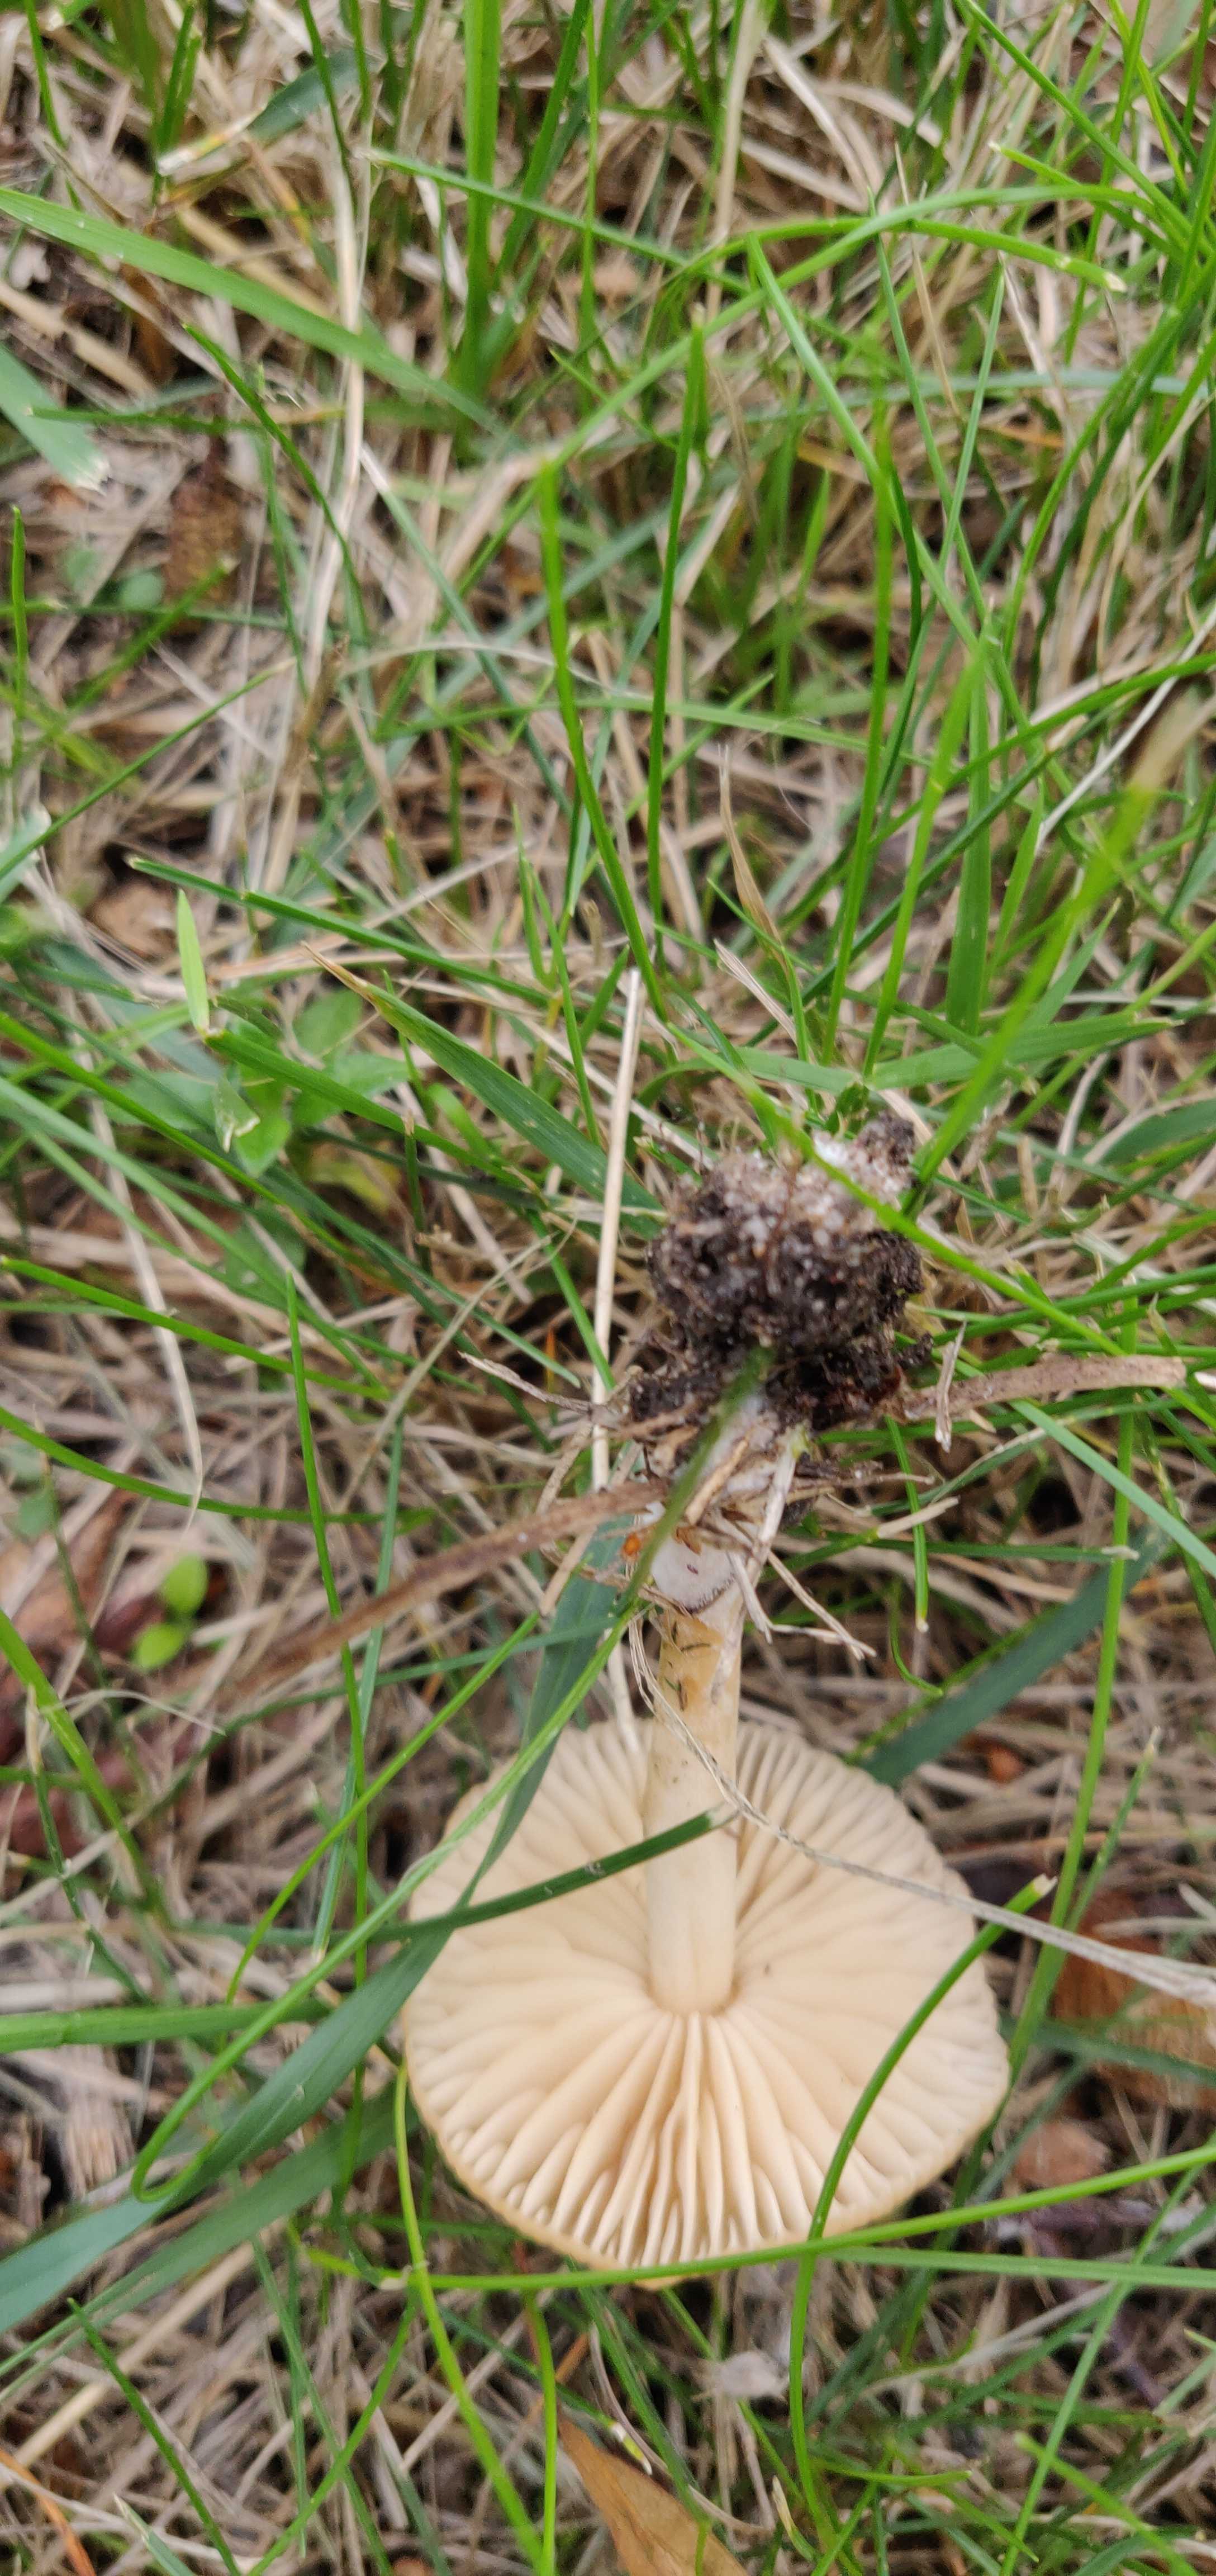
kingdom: Fungi
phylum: Basidiomycota
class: Agaricomycetes
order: Agaricales
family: Psathyrellaceae
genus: Coprinellus
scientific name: Coprinellus micaceus
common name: glimmer-blækhat
